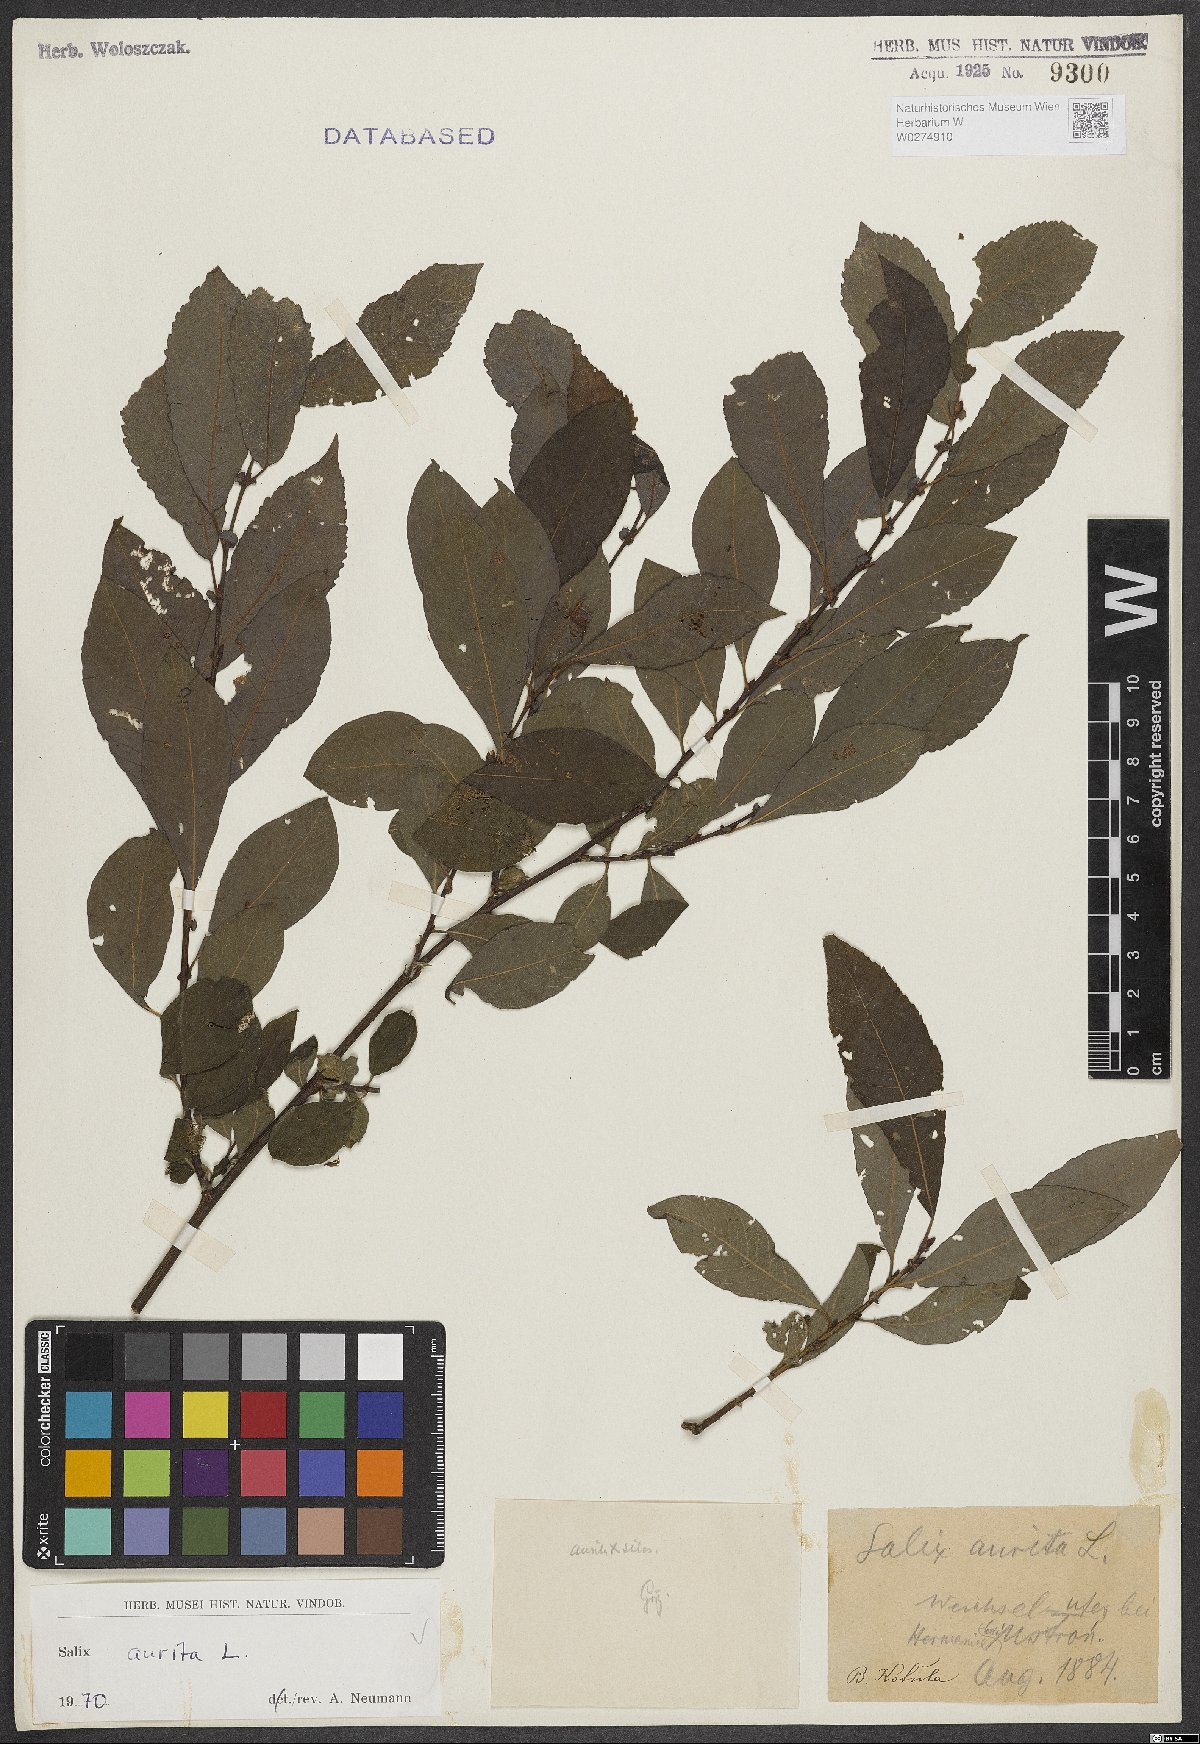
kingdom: Plantae
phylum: Tracheophyta
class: Magnoliopsida
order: Malpighiales
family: Salicaceae
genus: Salix
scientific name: Salix aurita
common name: Eared willow
